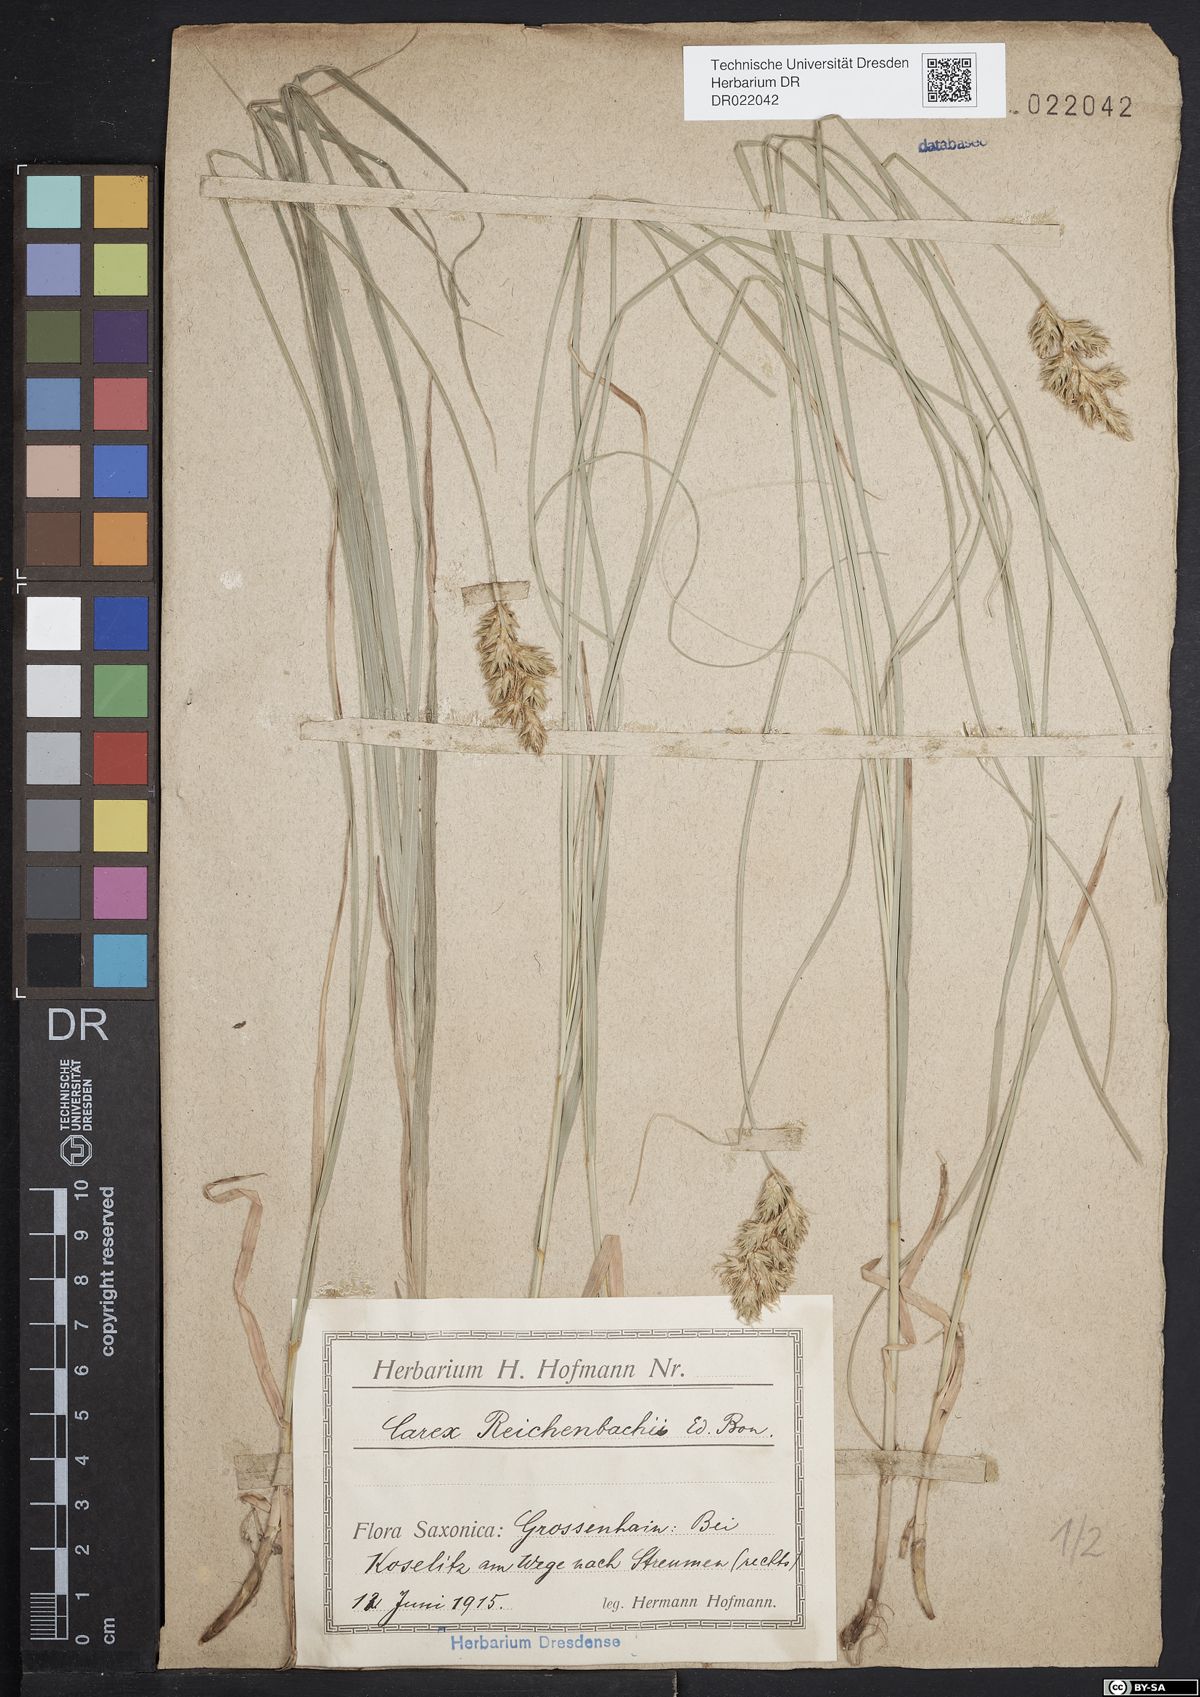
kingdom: Plantae
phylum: Tracheophyta
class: Liliopsida
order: Poales
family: Cyperaceae
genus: Carex
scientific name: Carex pseudobrizoides
